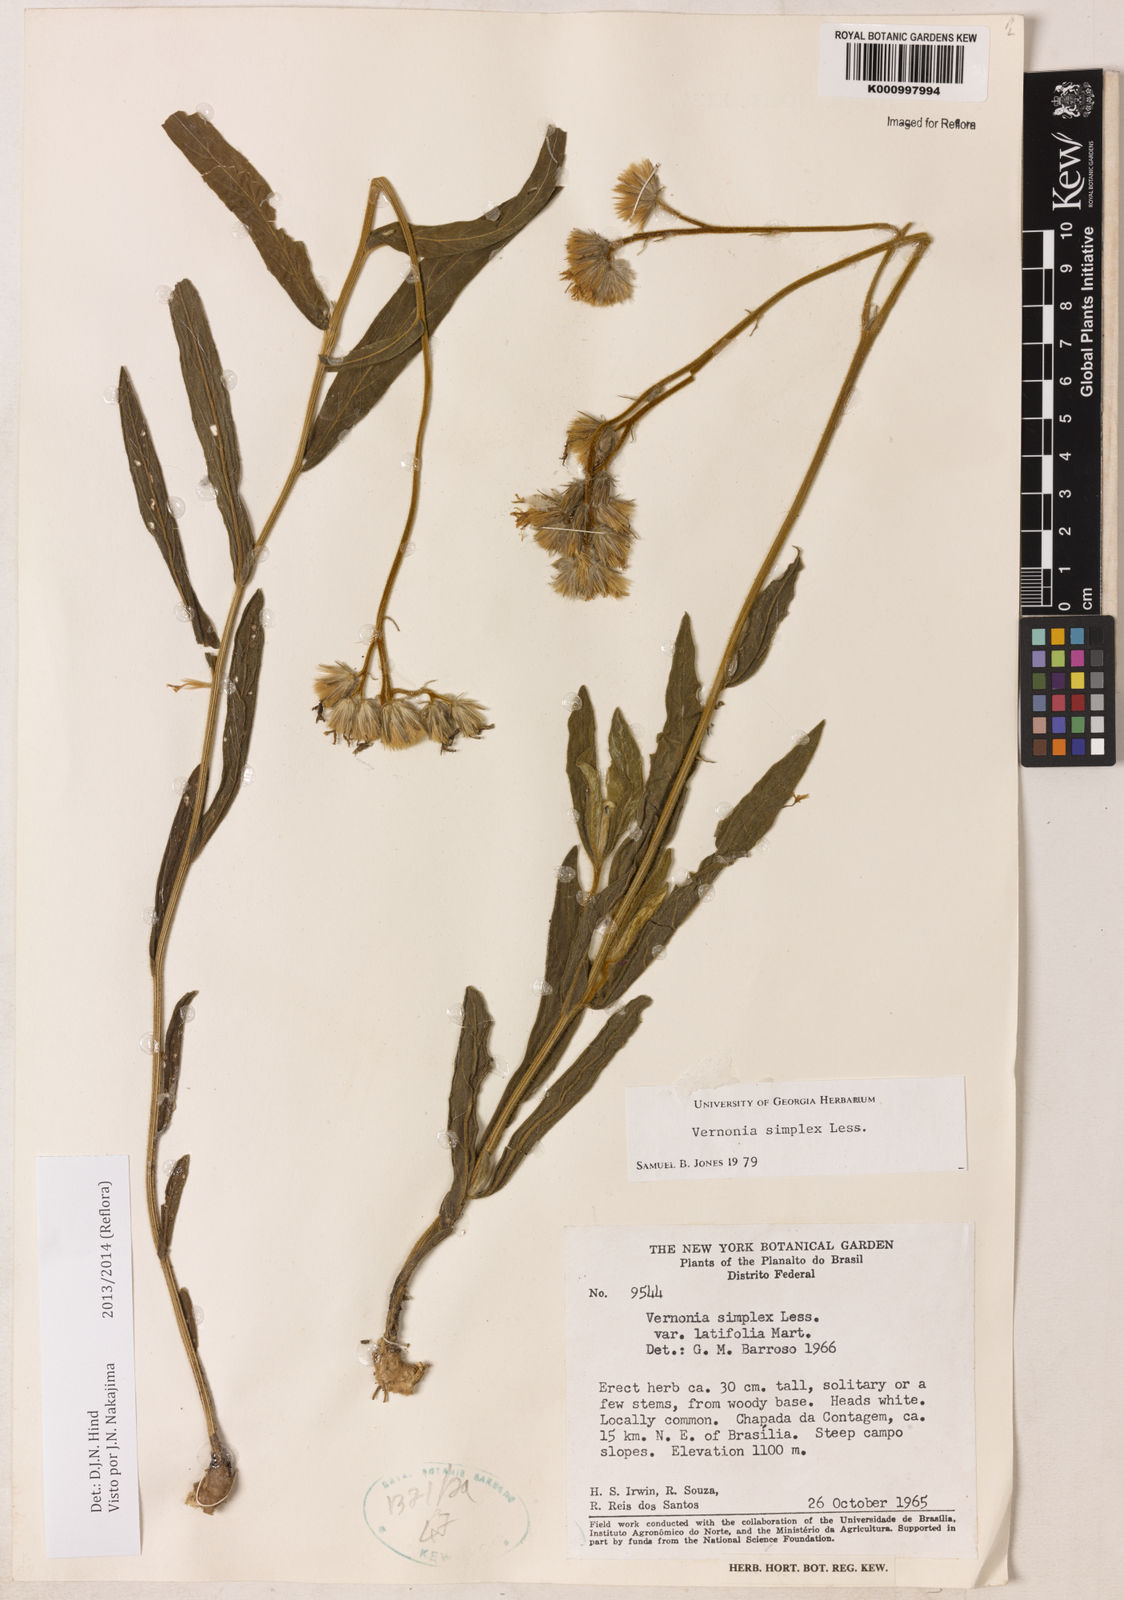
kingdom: Plantae
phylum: Tracheophyta
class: Magnoliopsida
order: Asterales
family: Asteraceae
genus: Chrysolaena
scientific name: Chrysolaena simplex
